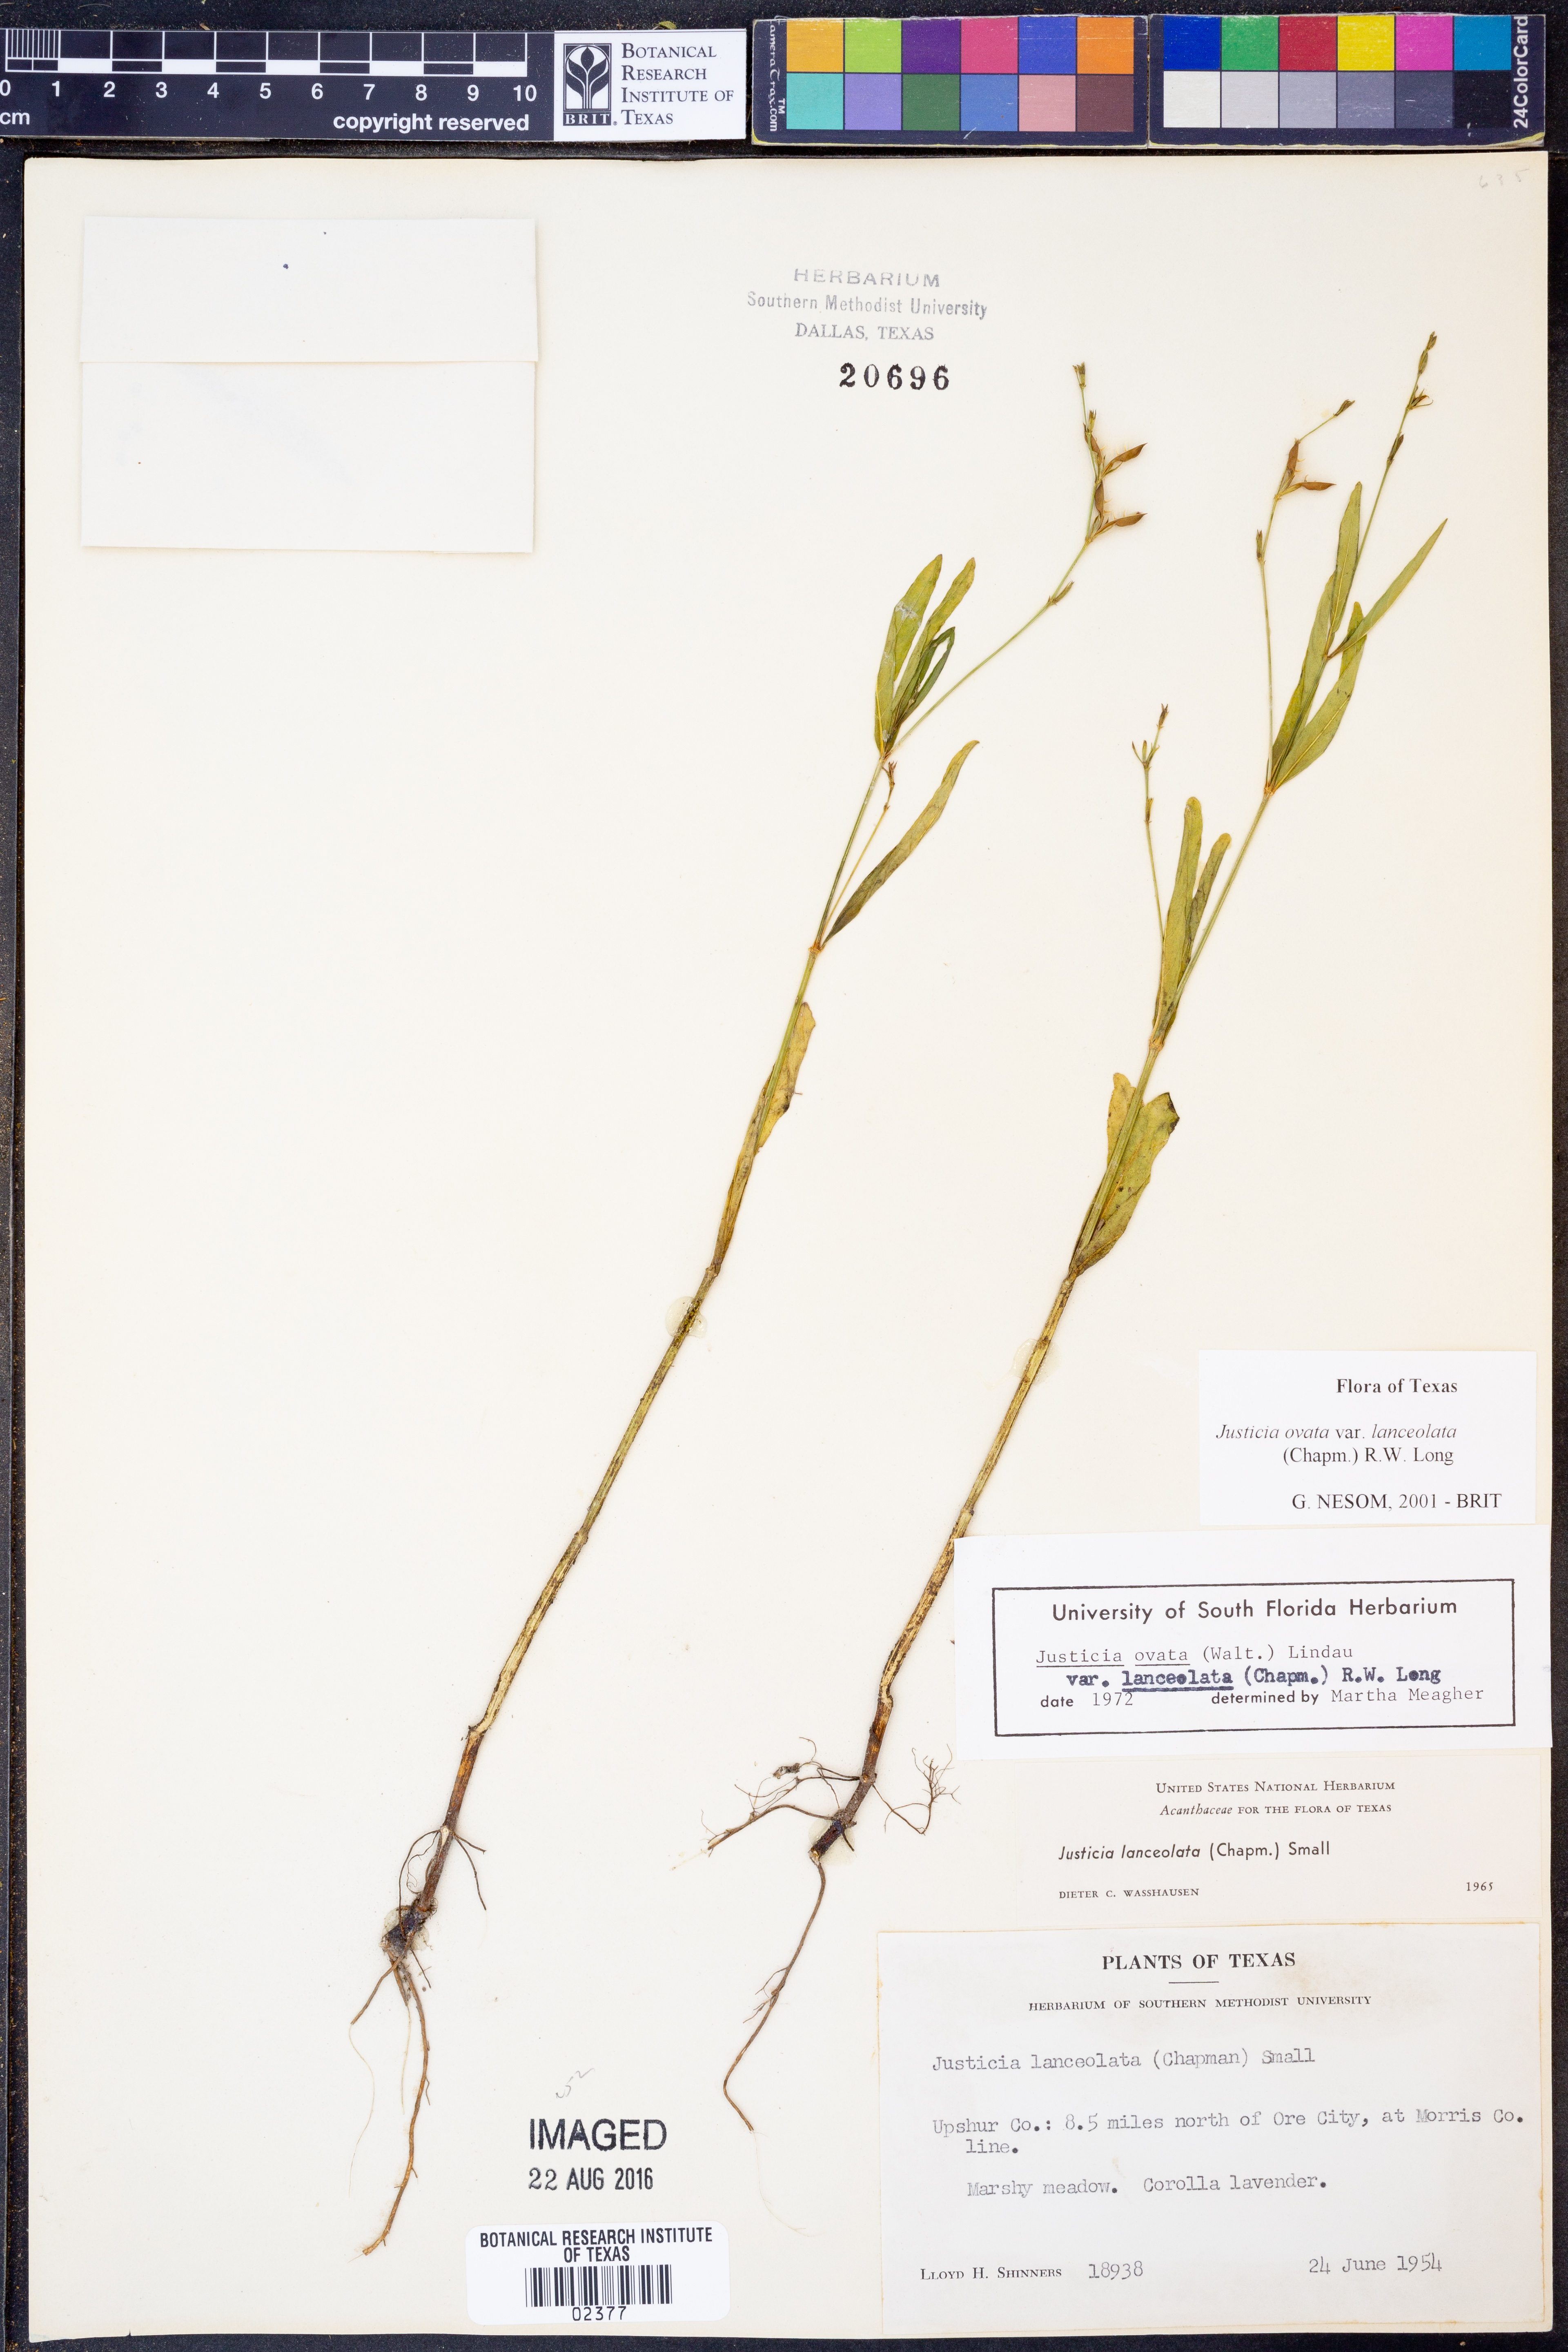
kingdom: Plantae
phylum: Tracheophyta
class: Magnoliopsida
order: Lamiales
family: Acanthaceae
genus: Justicia
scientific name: Justicia lanceolata
